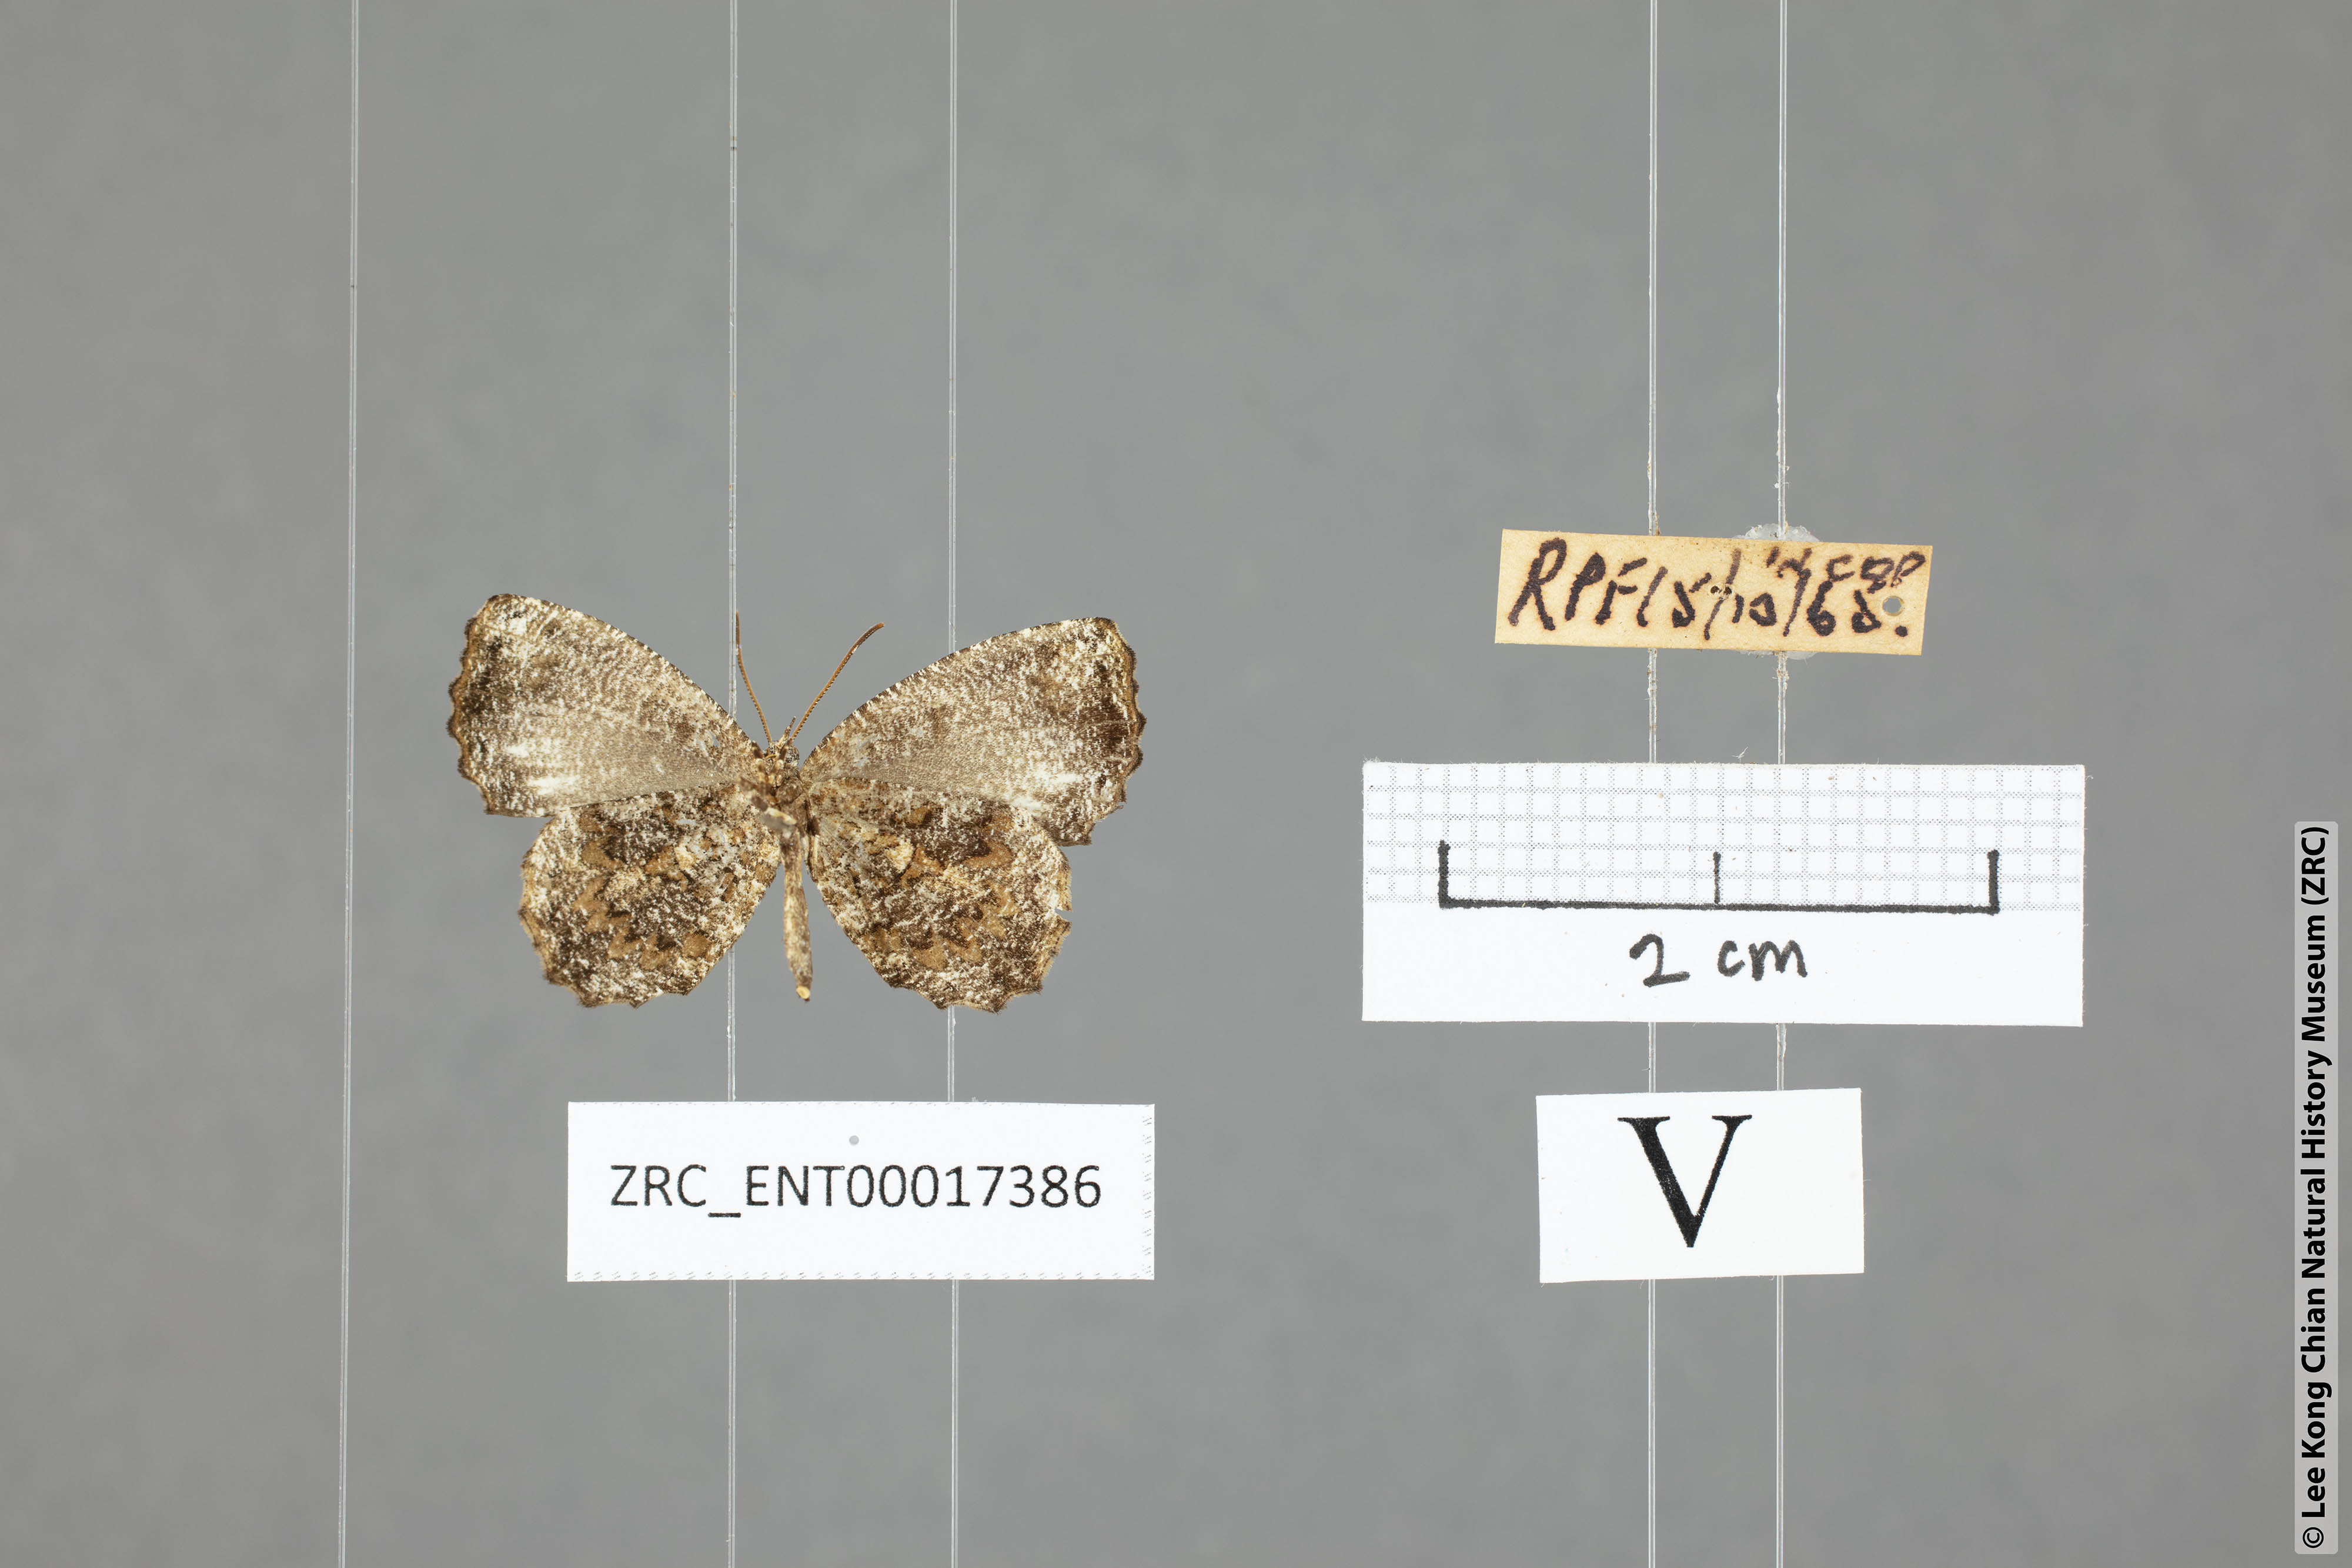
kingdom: Animalia
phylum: Arthropoda
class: Insecta
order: Lepidoptera
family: Lycaenidae
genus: Logania
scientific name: Logania marmorata
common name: Pale mottle
